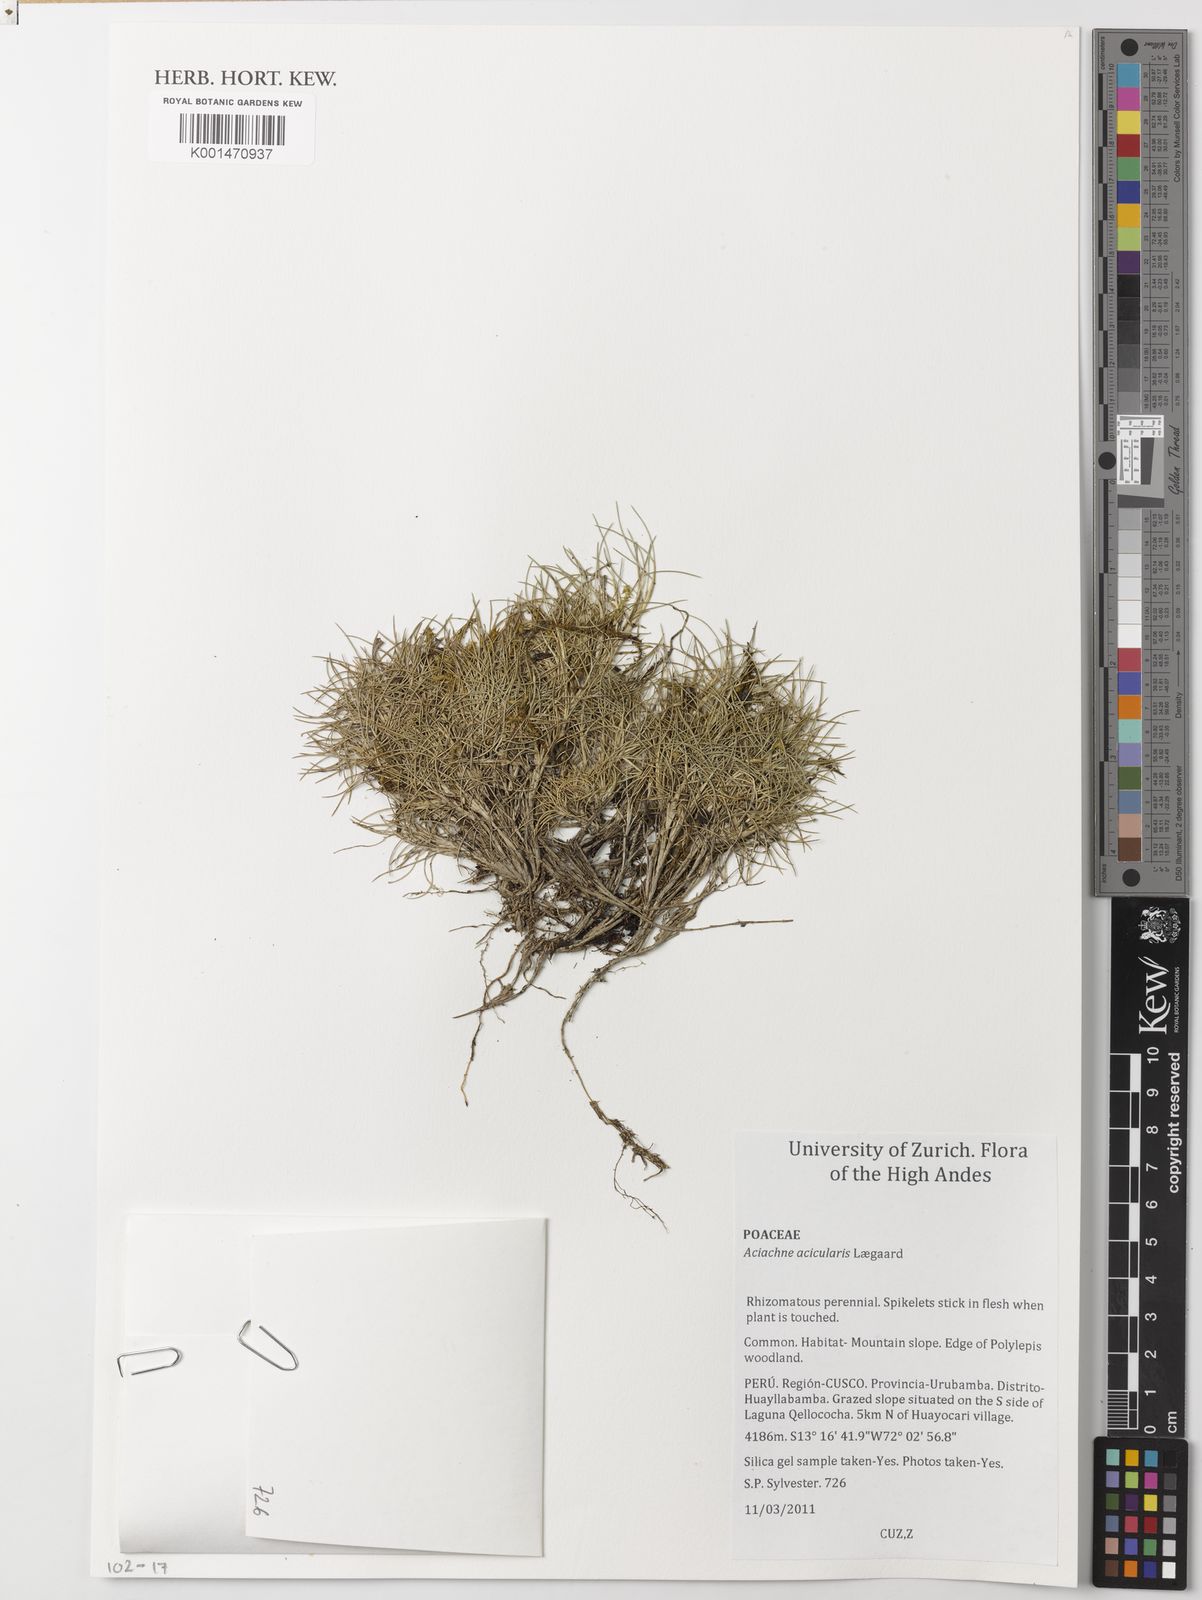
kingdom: Plantae
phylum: Tracheophyta
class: Liliopsida
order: Poales
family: Poaceae
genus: Aciachne
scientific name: Aciachne acicularis
